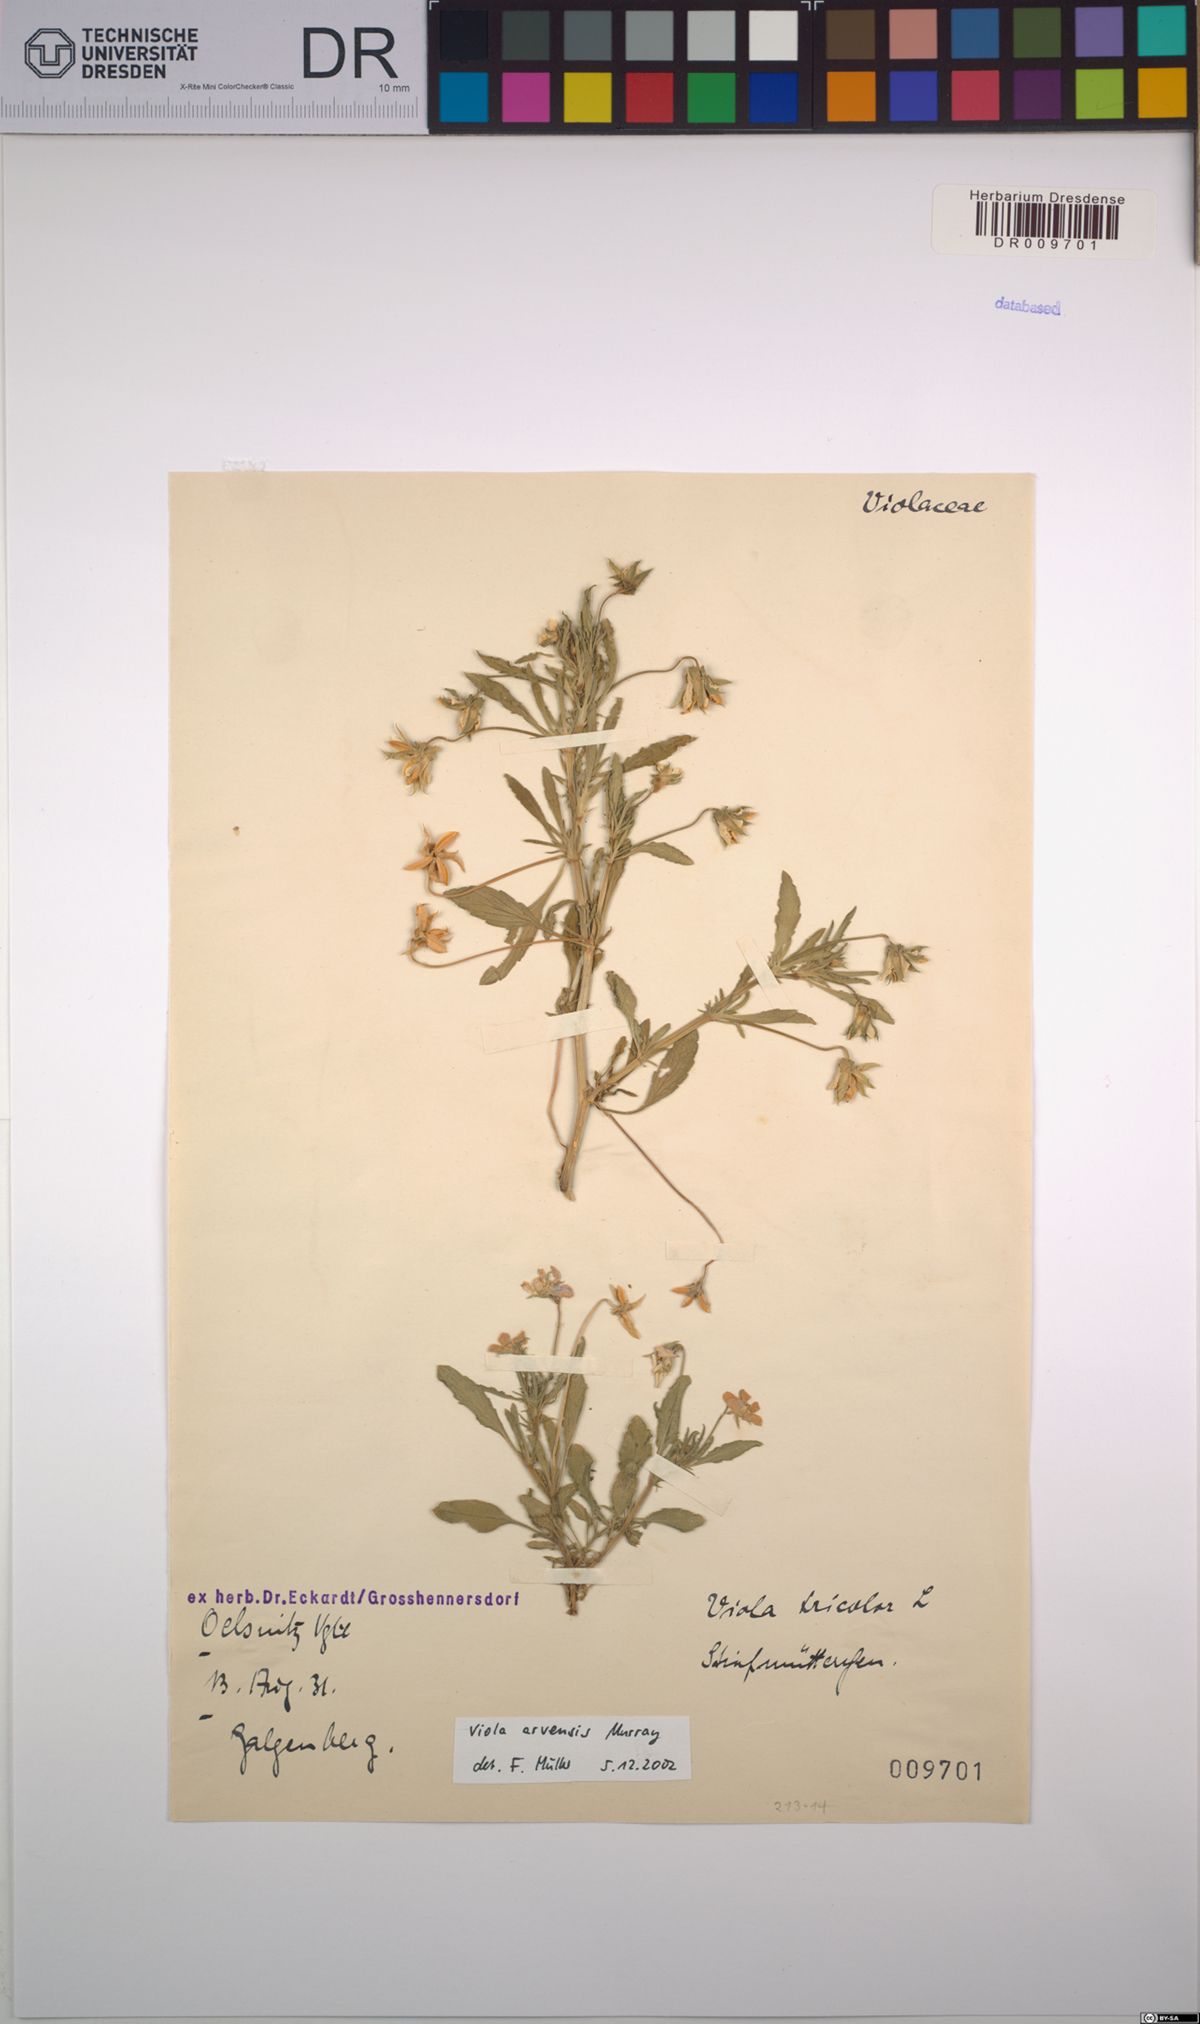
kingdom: Plantae
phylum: Tracheophyta
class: Magnoliopsida
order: Malpighiales
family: Violaceae
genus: Viola
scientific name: Viola arvensis
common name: Field pansy
